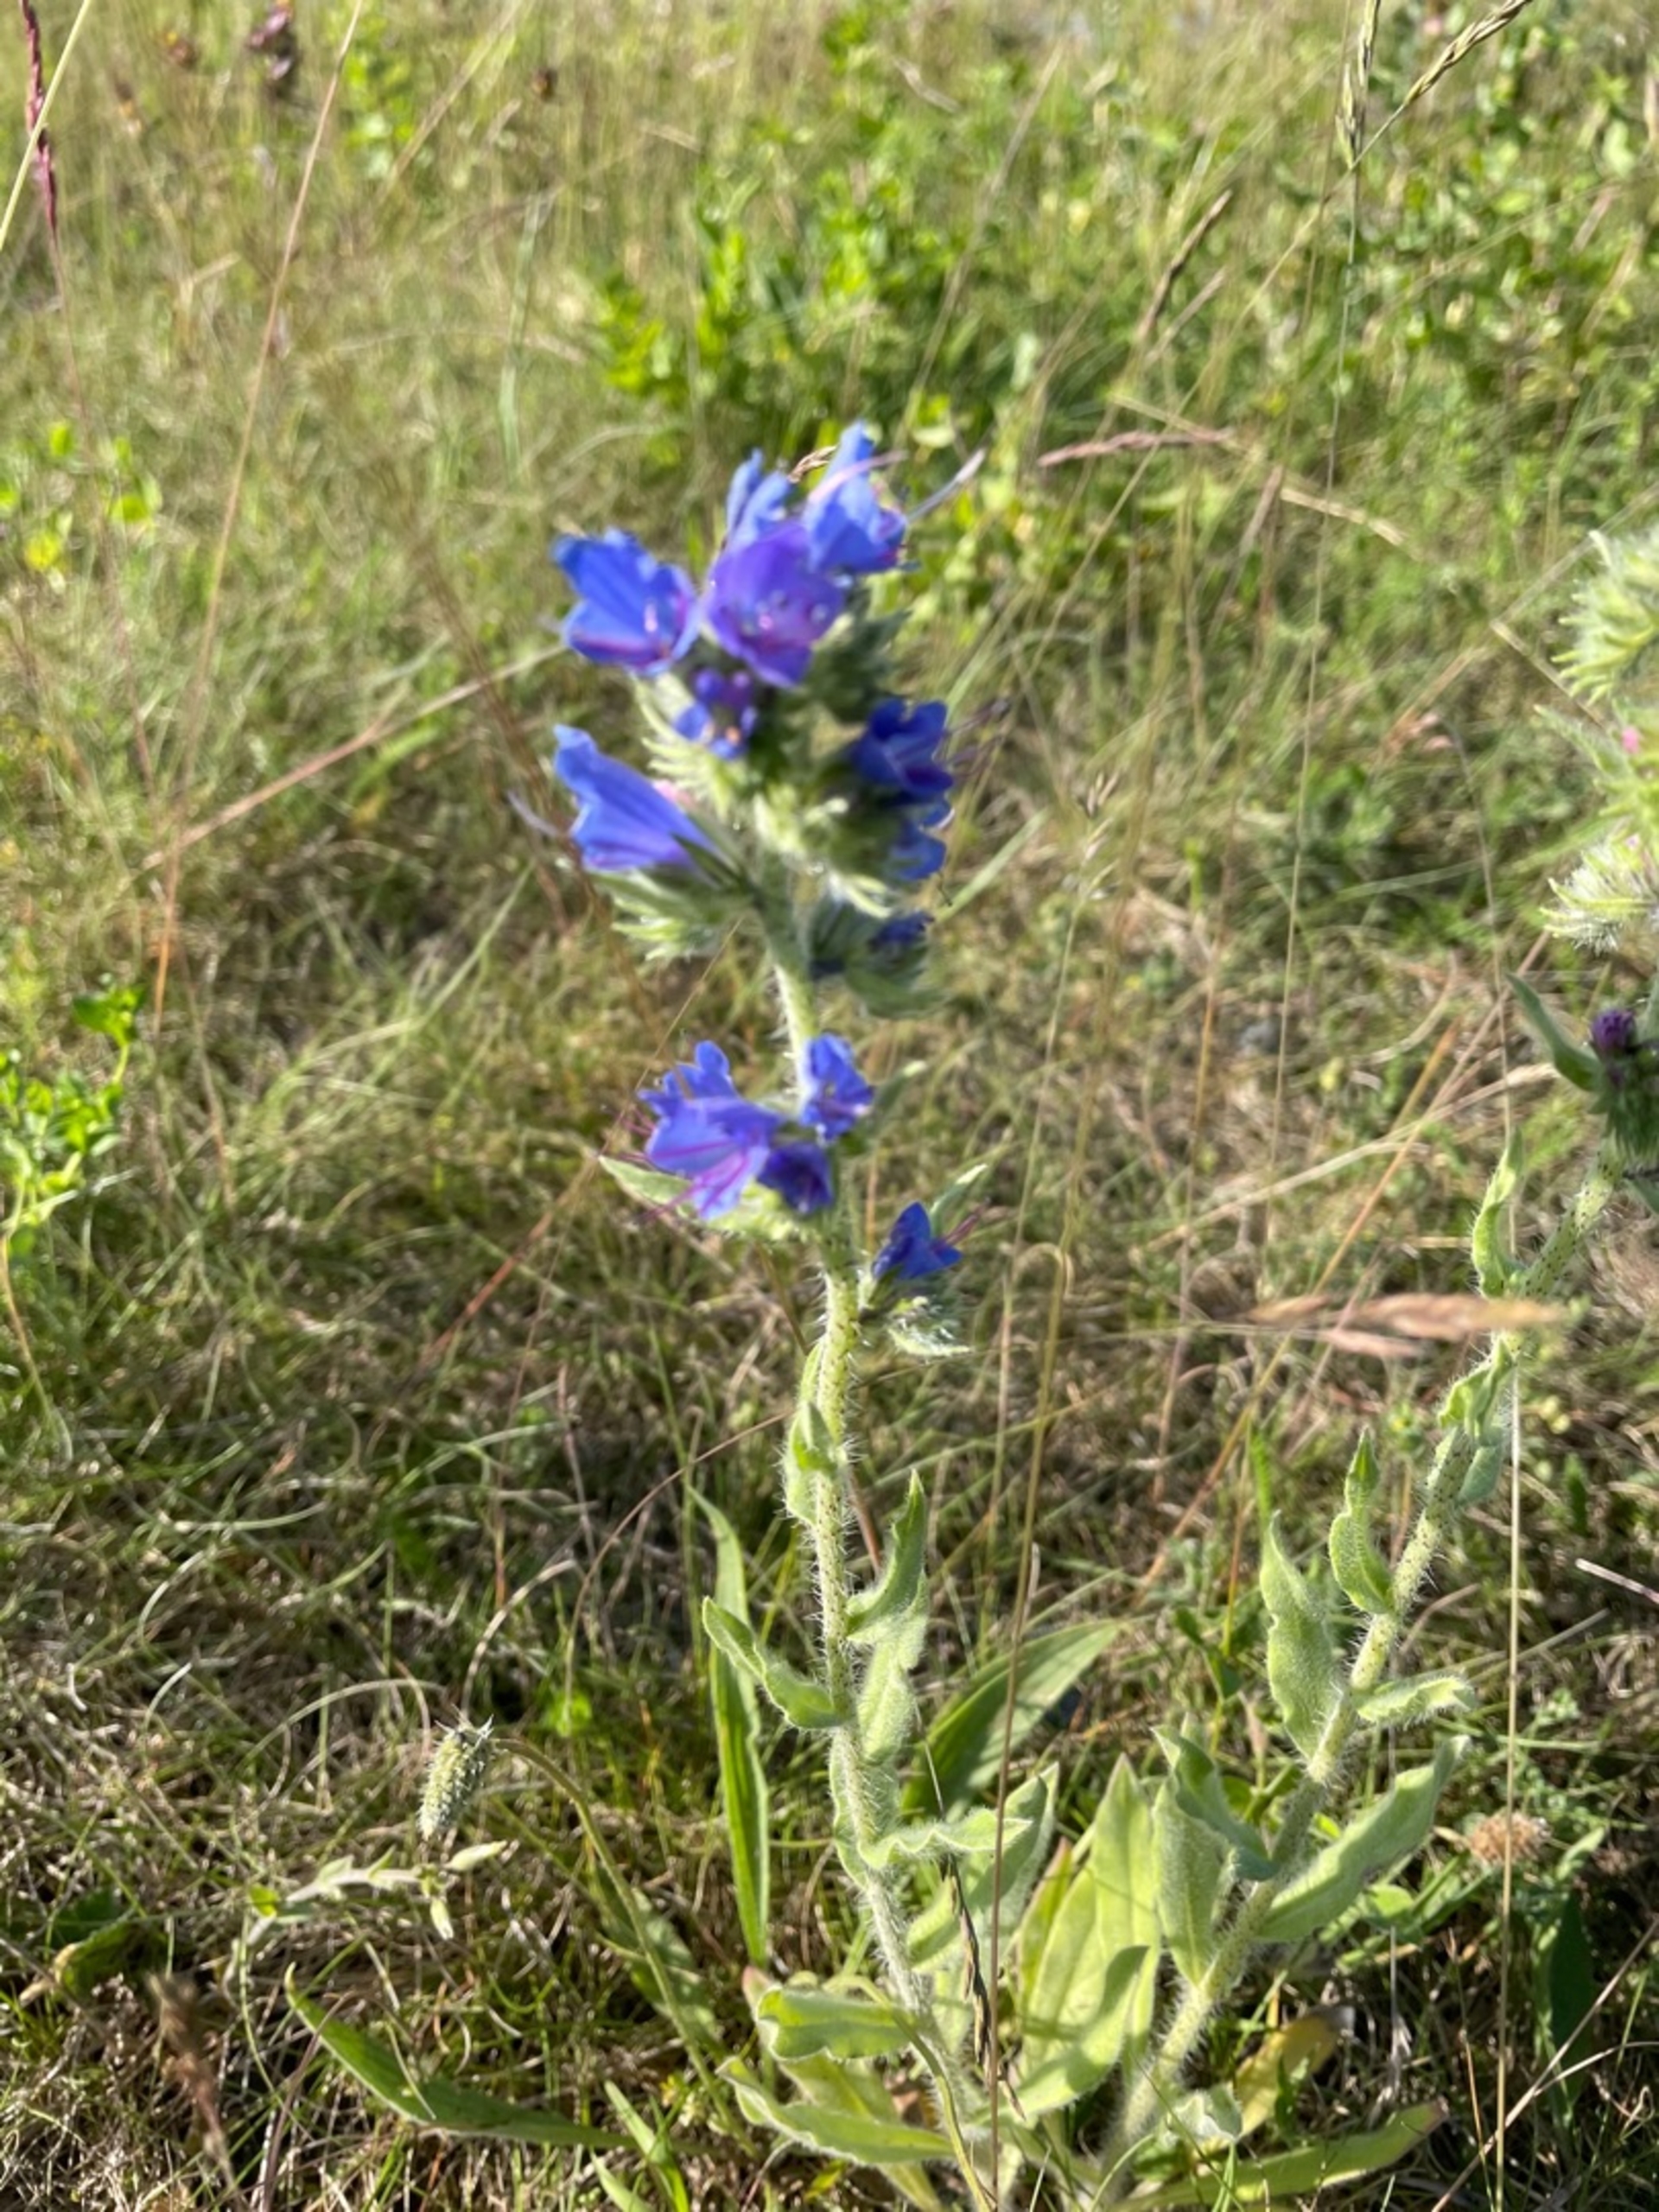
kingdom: Plantae
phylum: Tracheophyta
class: Magnoliopsida
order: Boraginales
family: Boraginaceae
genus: Echium
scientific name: Echium vulgare
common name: Slangehoved
